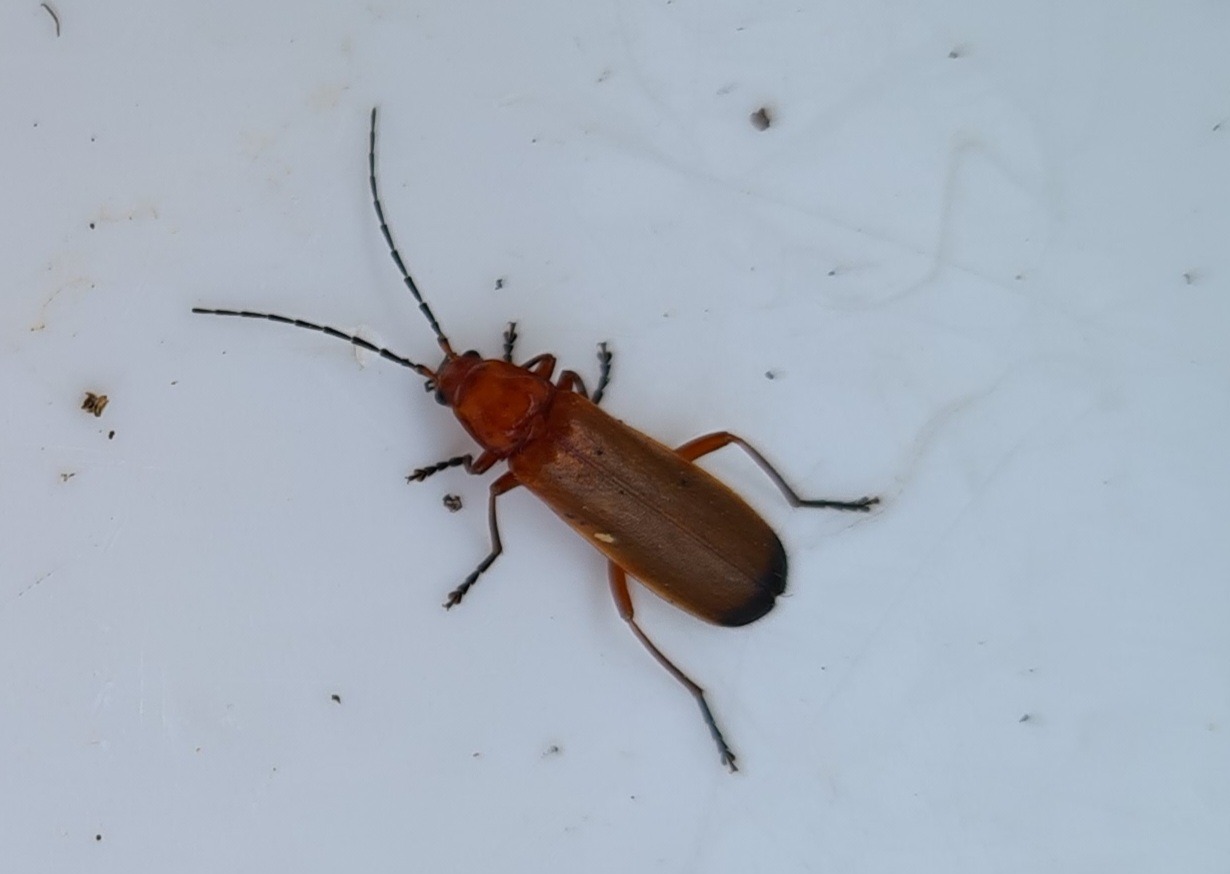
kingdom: Animalia
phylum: Arthropoda
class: Insecta
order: Coleoptera
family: Cantharidae
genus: Rhagonycha
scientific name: Rhagonycha fulva
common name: Præstebille
